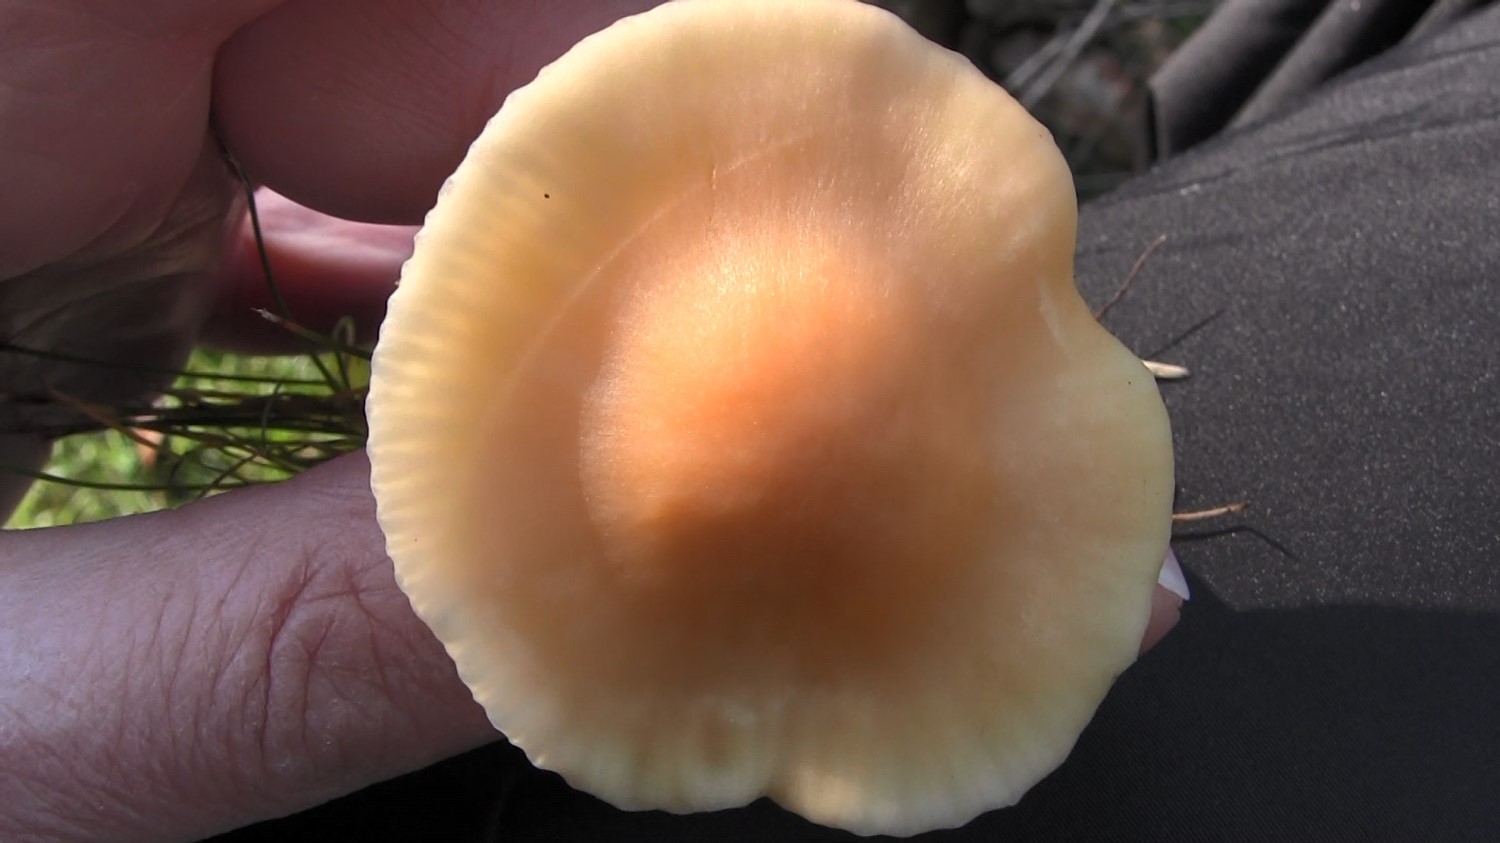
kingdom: Fungi
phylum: Basidiomycota
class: Agaricomycetes
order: Agaricales
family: Hygrophoraceae
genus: Cuphophyllus
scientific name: Cuphophyllus pratensis
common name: eng-vokshat
